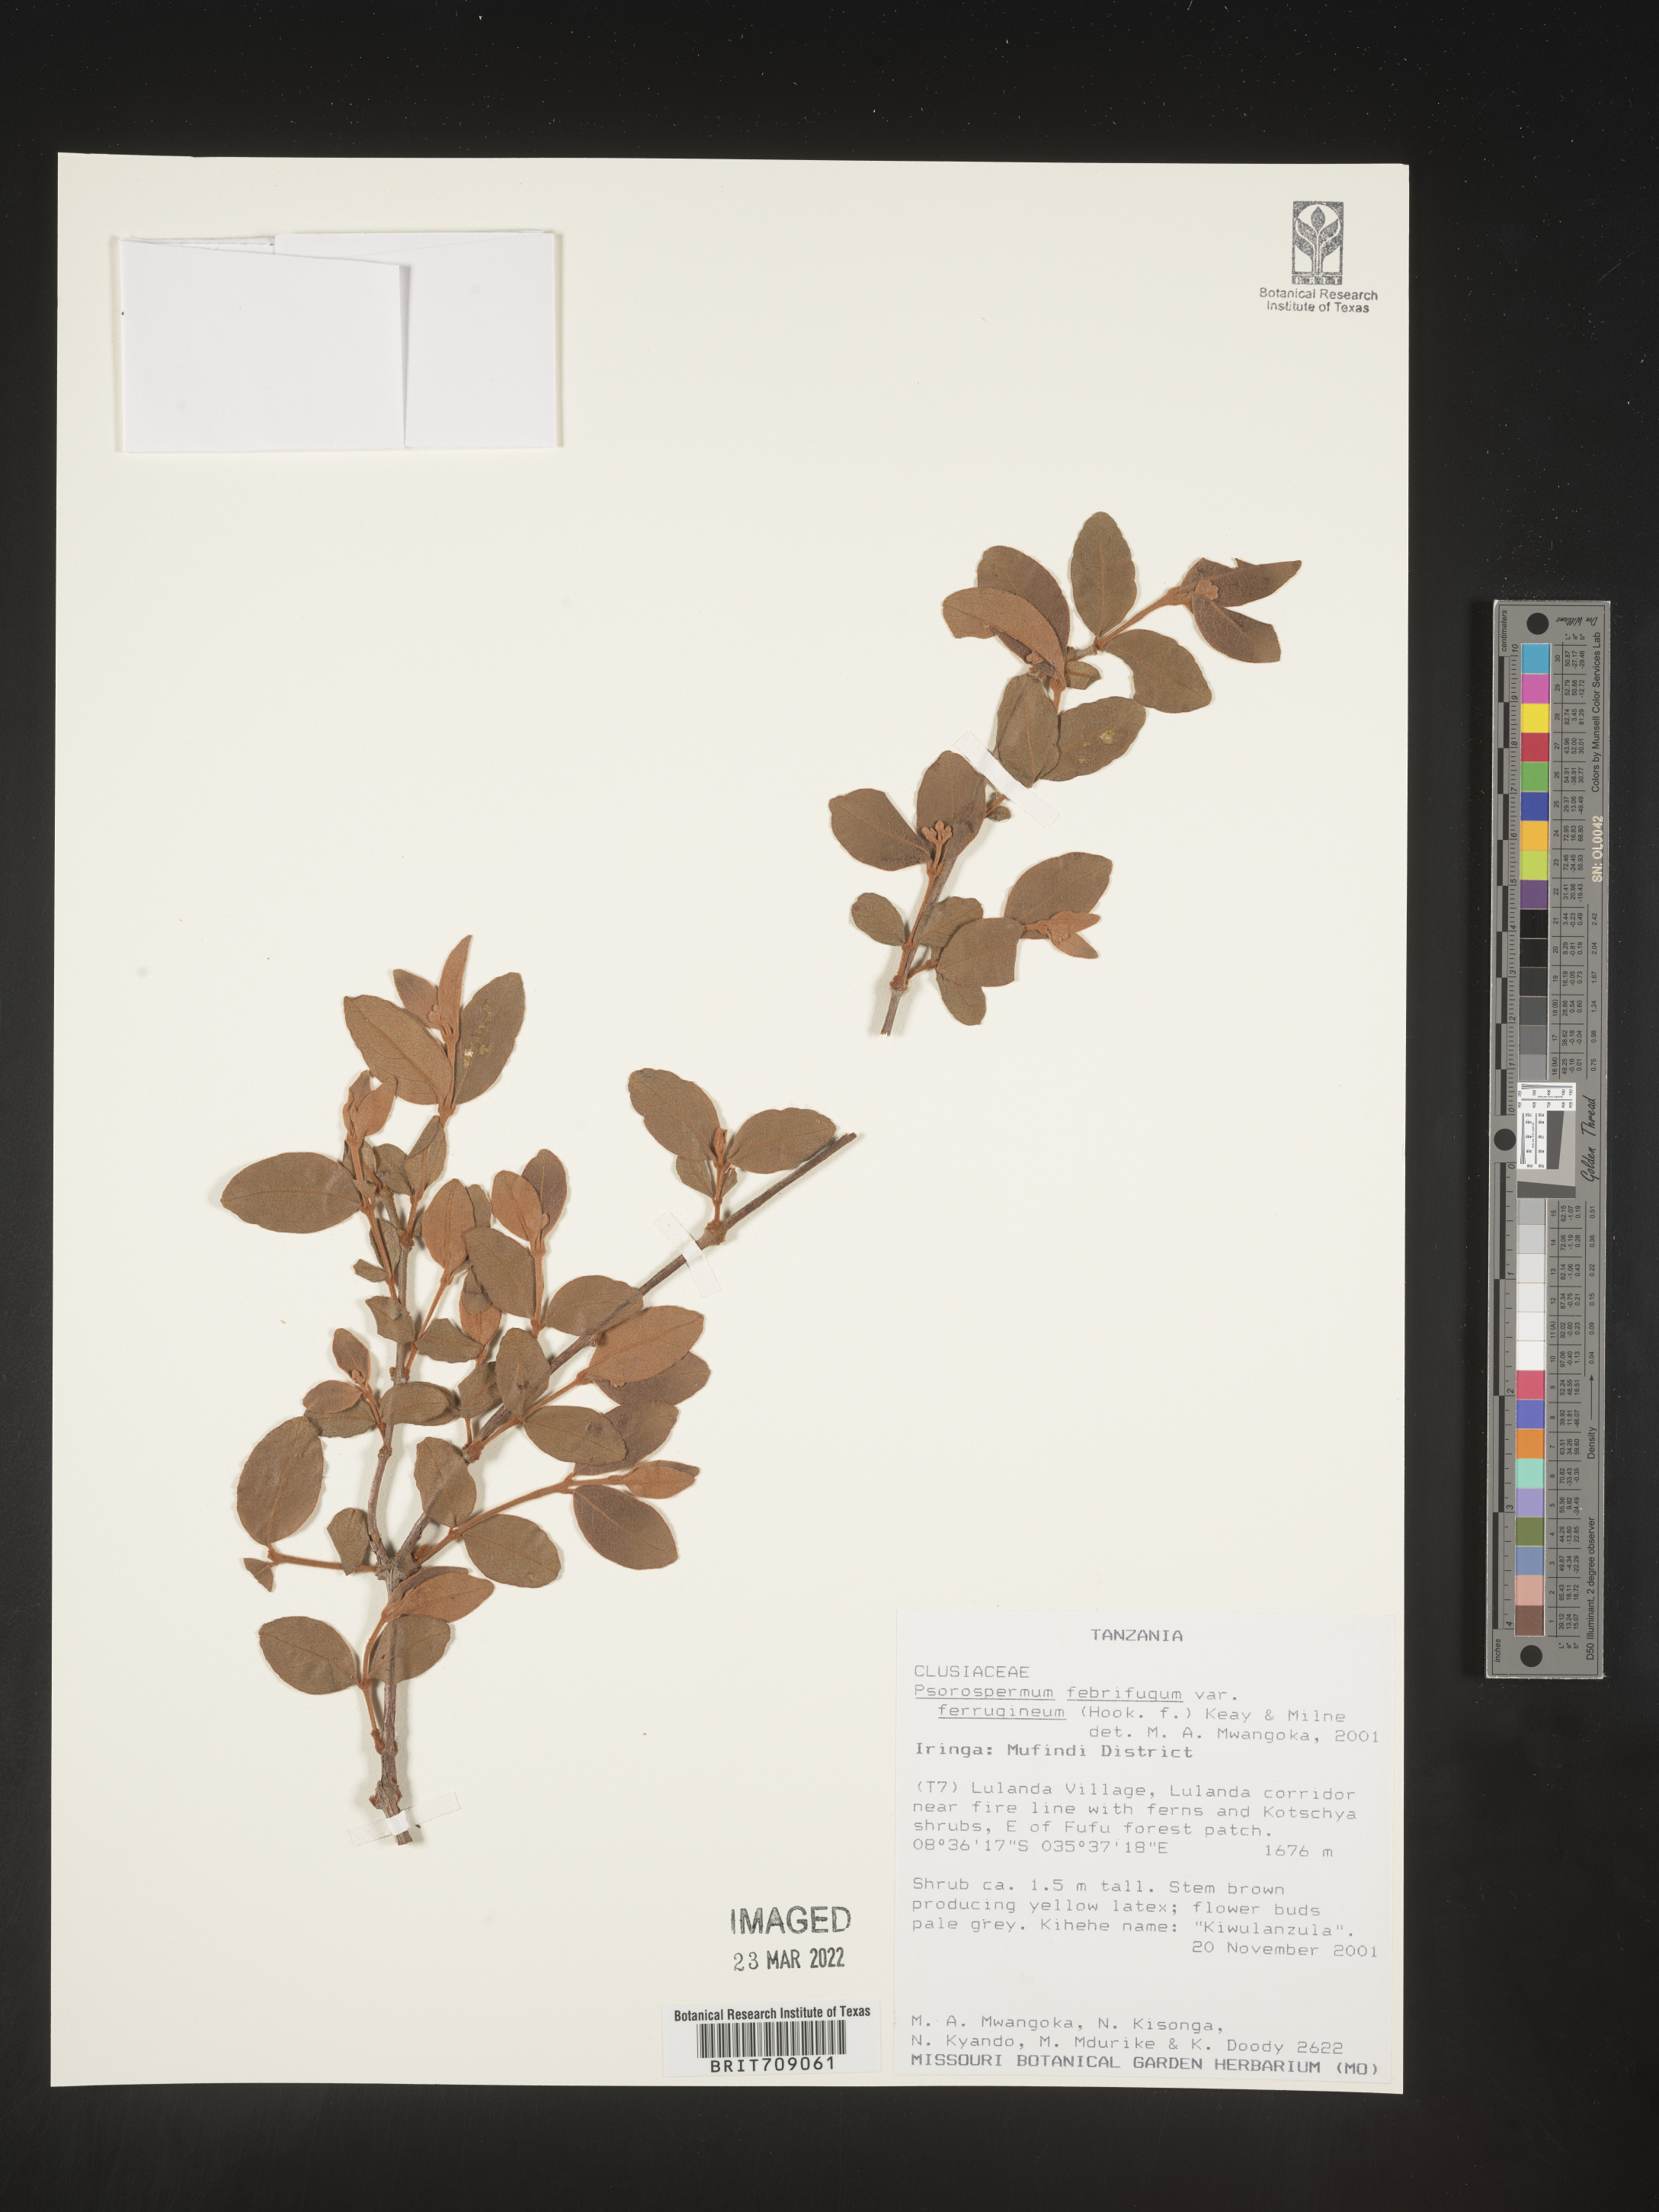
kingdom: Plantae
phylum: Tracheophyta
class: Magnoliopsida
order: Malpighiales
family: Hypericaceae
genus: Psorospermum
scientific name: Psorospermum
